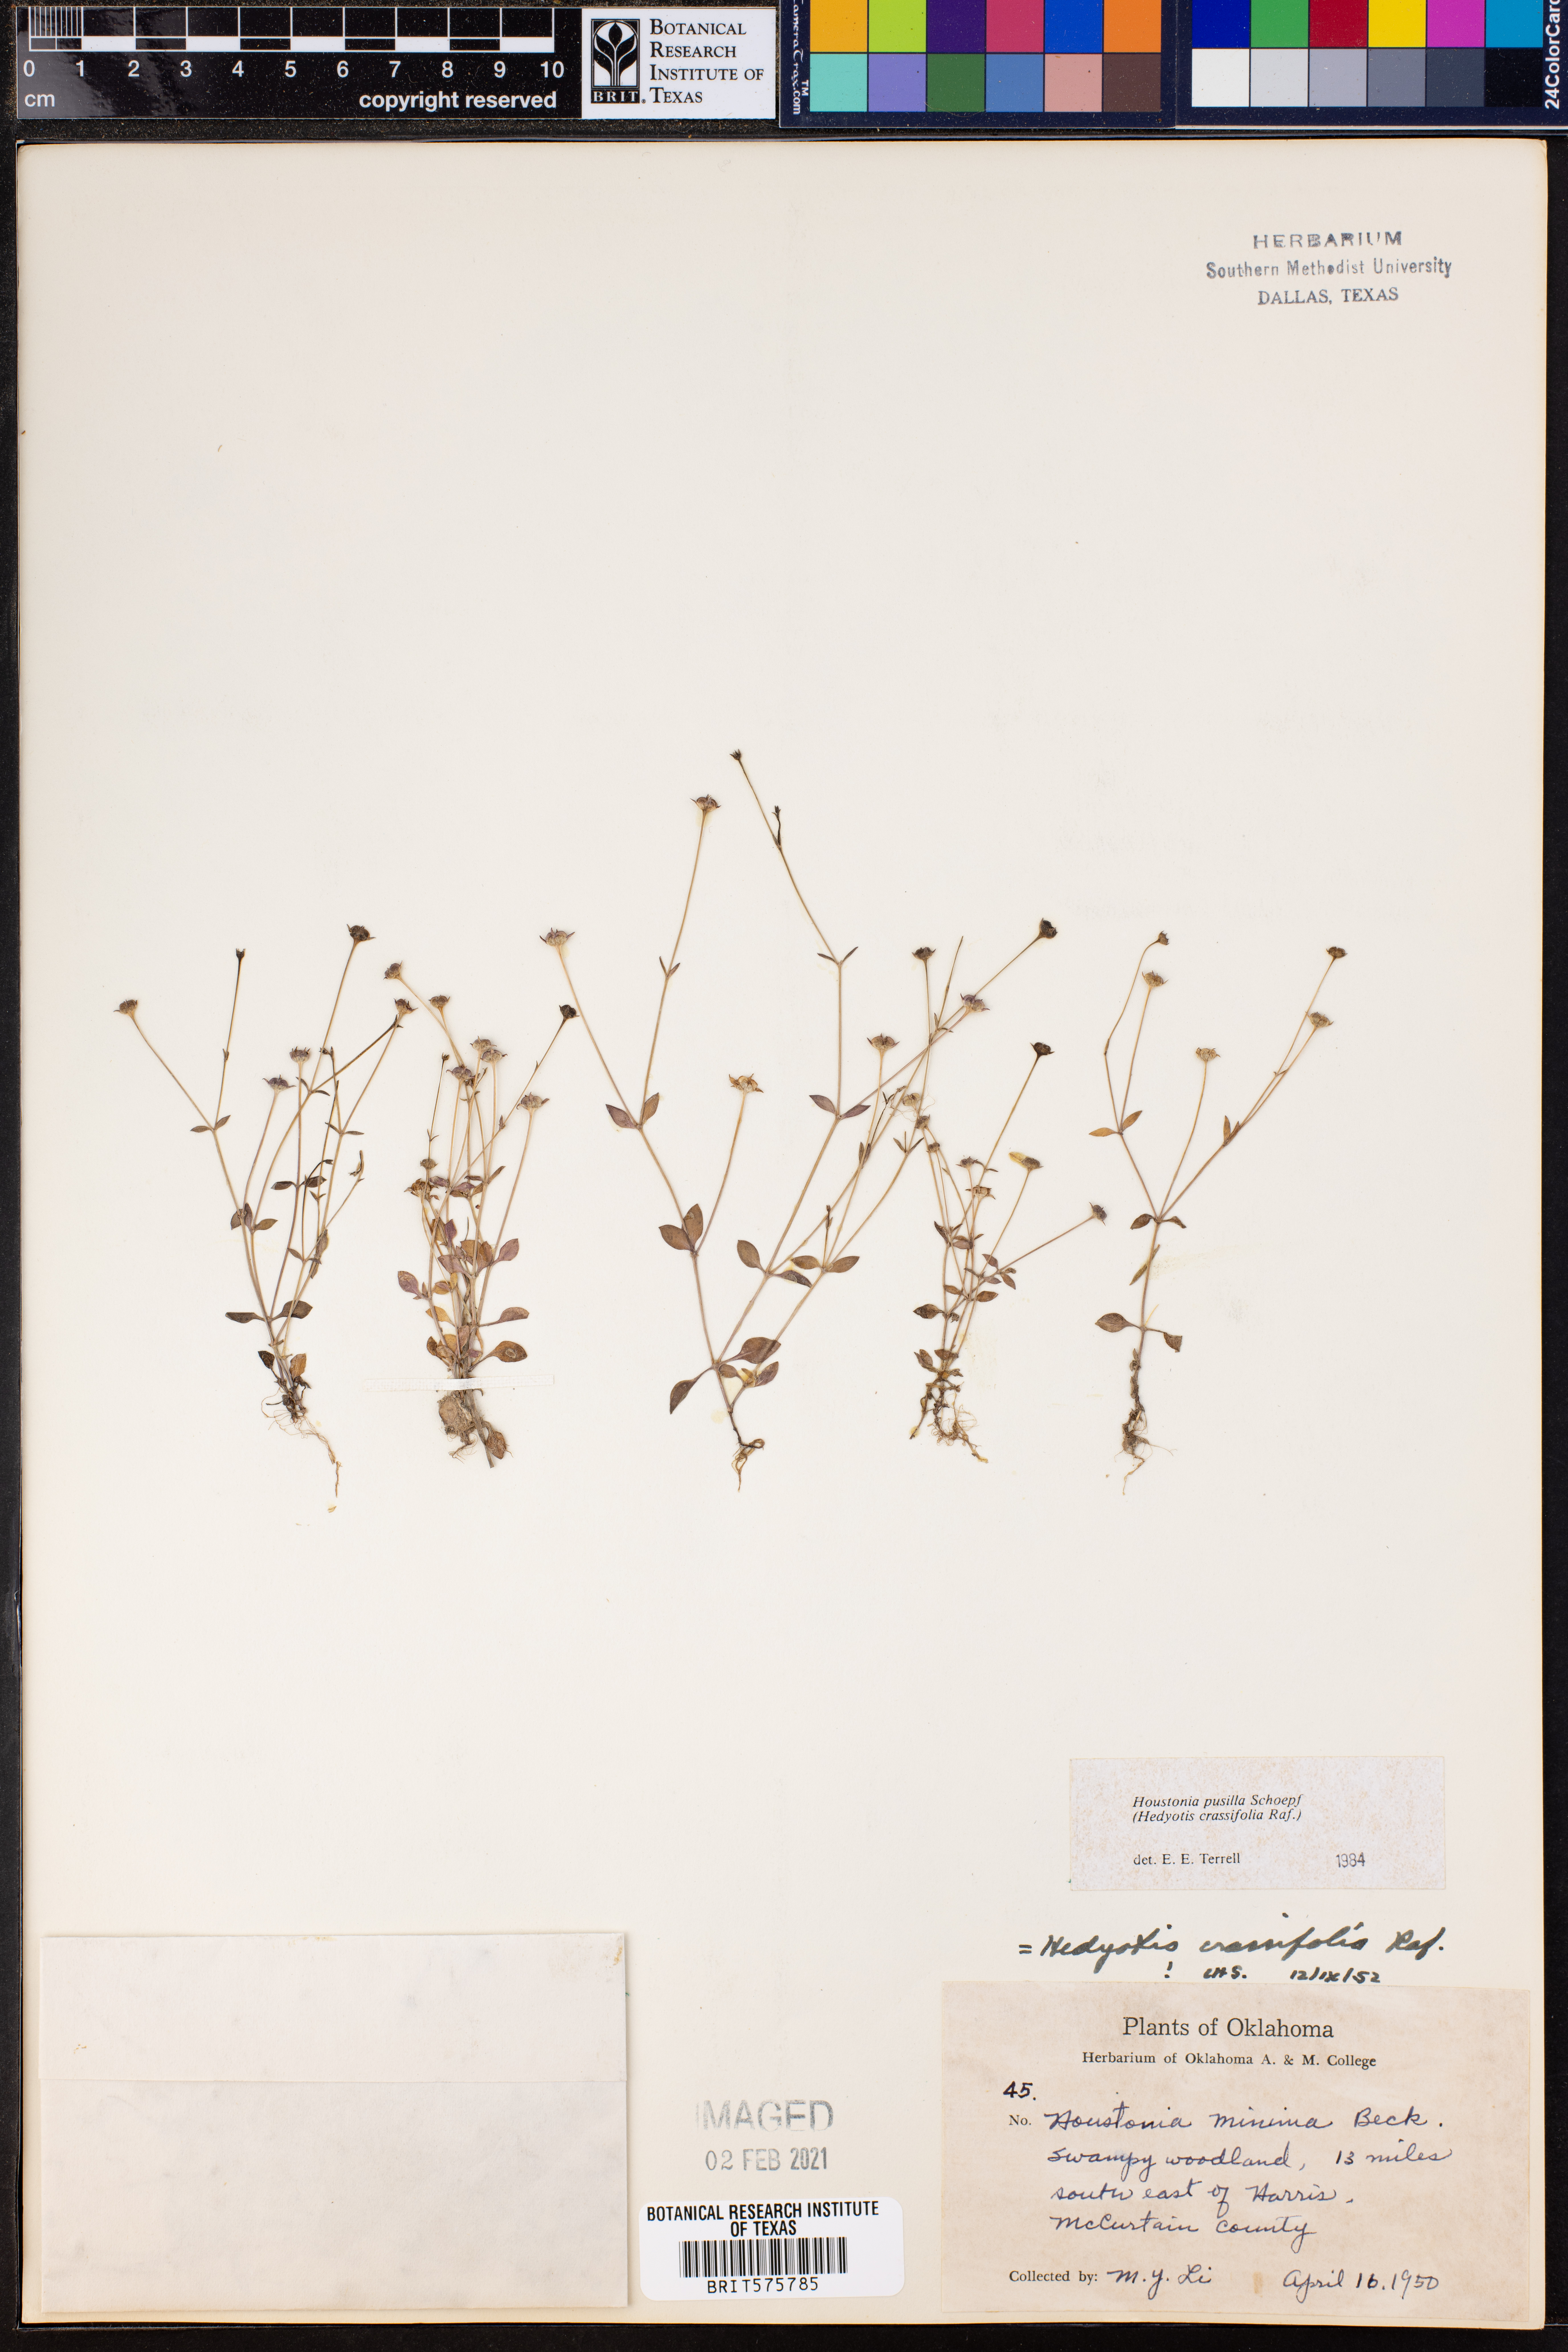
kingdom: Plantae
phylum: Tracheophyta
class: Magnoliopsida
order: Gentianales
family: Rubiaceae
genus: Houstonia
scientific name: Houstonia pusilla
